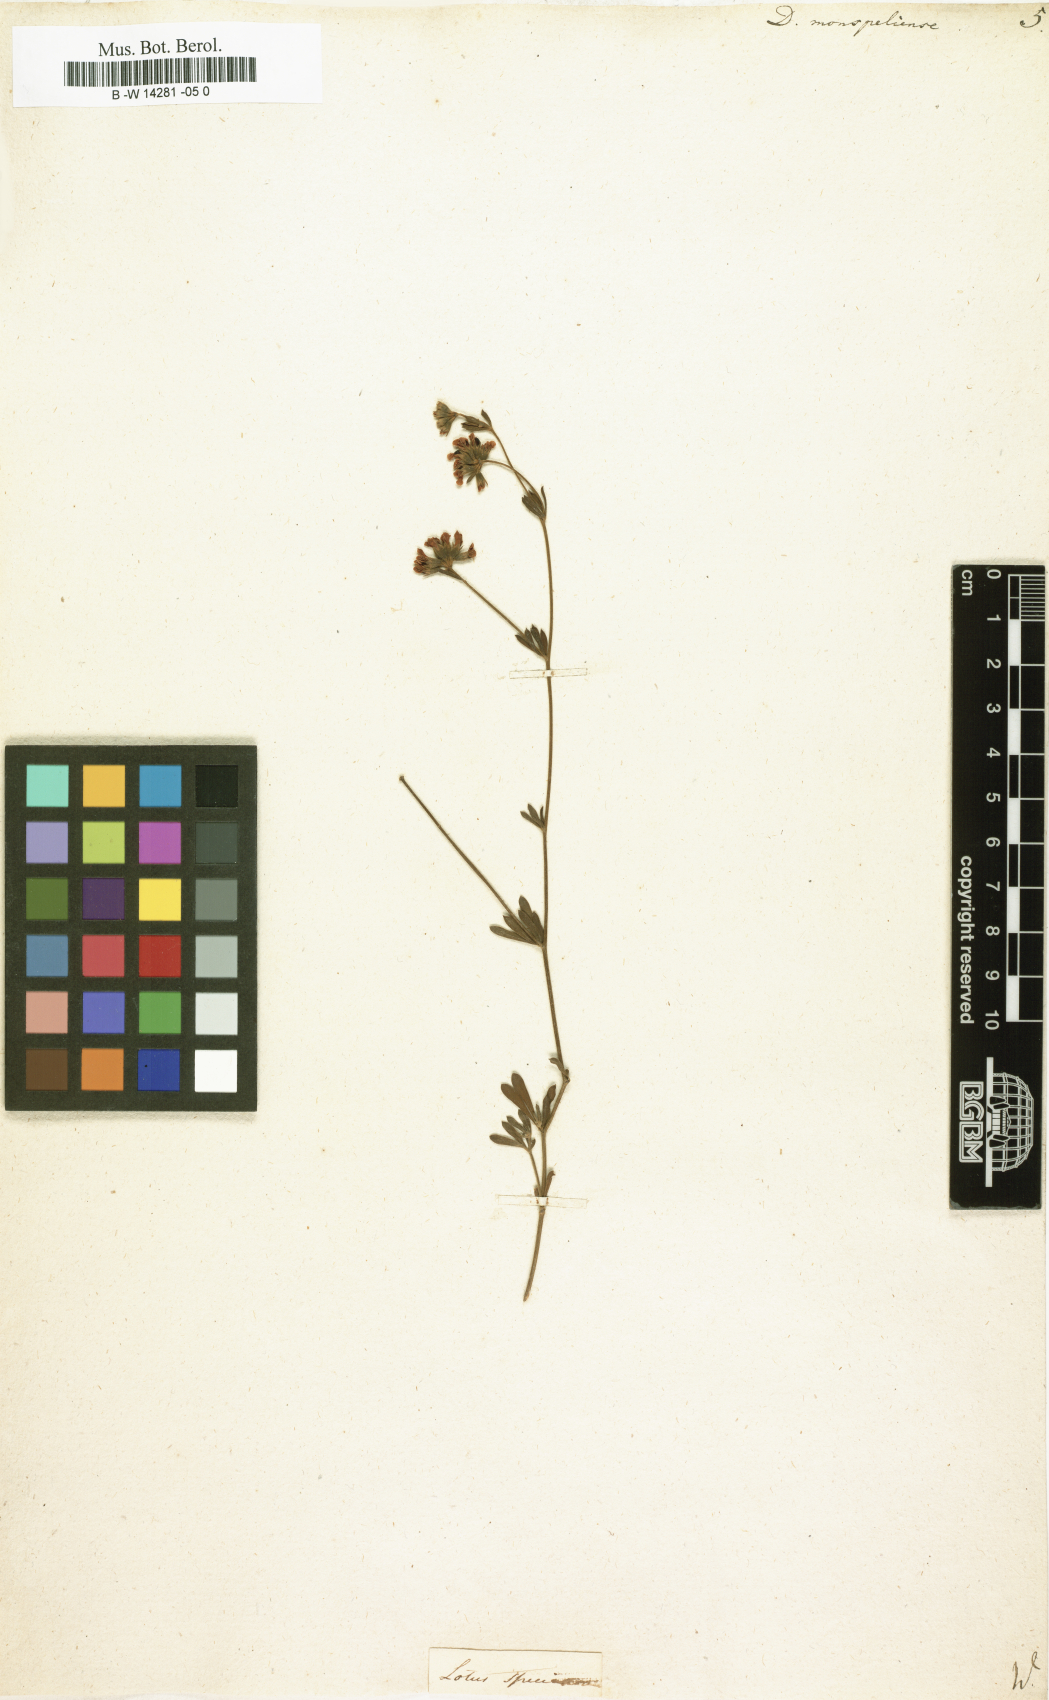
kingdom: Plantae
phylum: Tracheophyta
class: Magnoliopsida
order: Fabales
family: Fabaceae
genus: Lotus
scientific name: Lotus dorycnium
